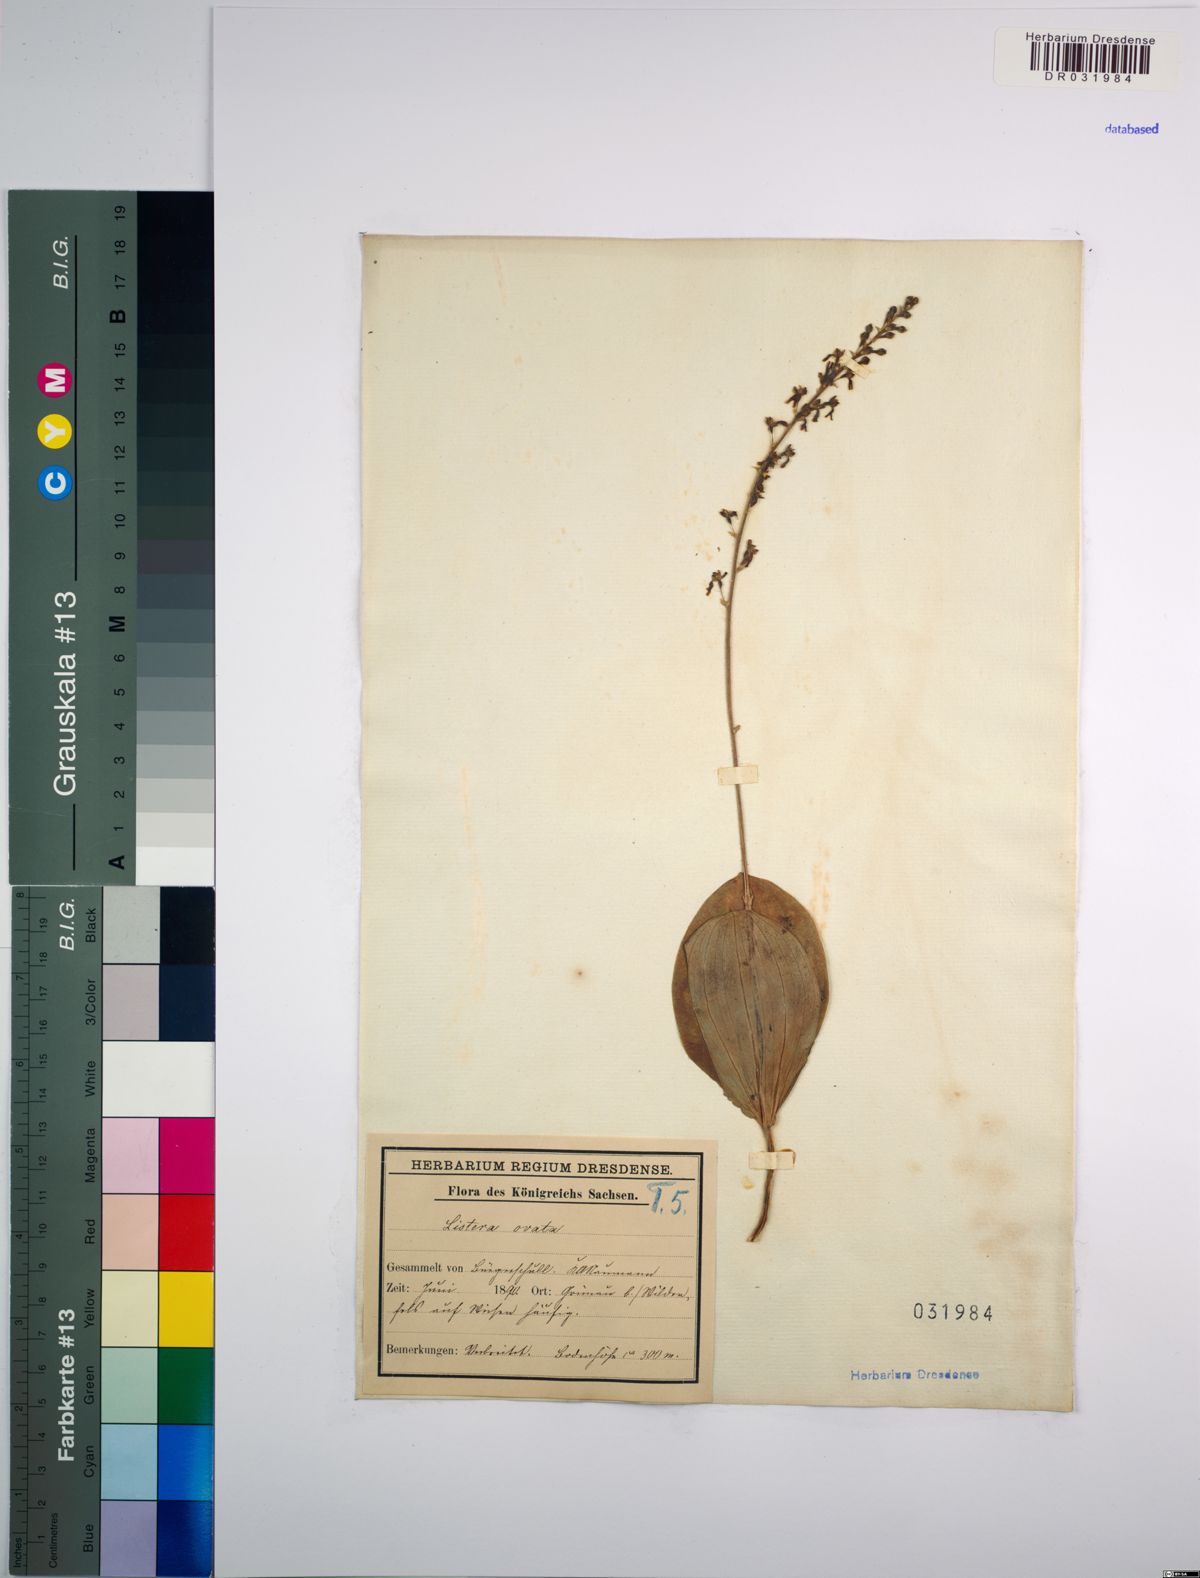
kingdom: Plantae
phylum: Tracheophyta
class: Liliopsida
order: Asparagales
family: Orchidaceae
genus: Neottia
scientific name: Neottia ovata
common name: Common twayblade
